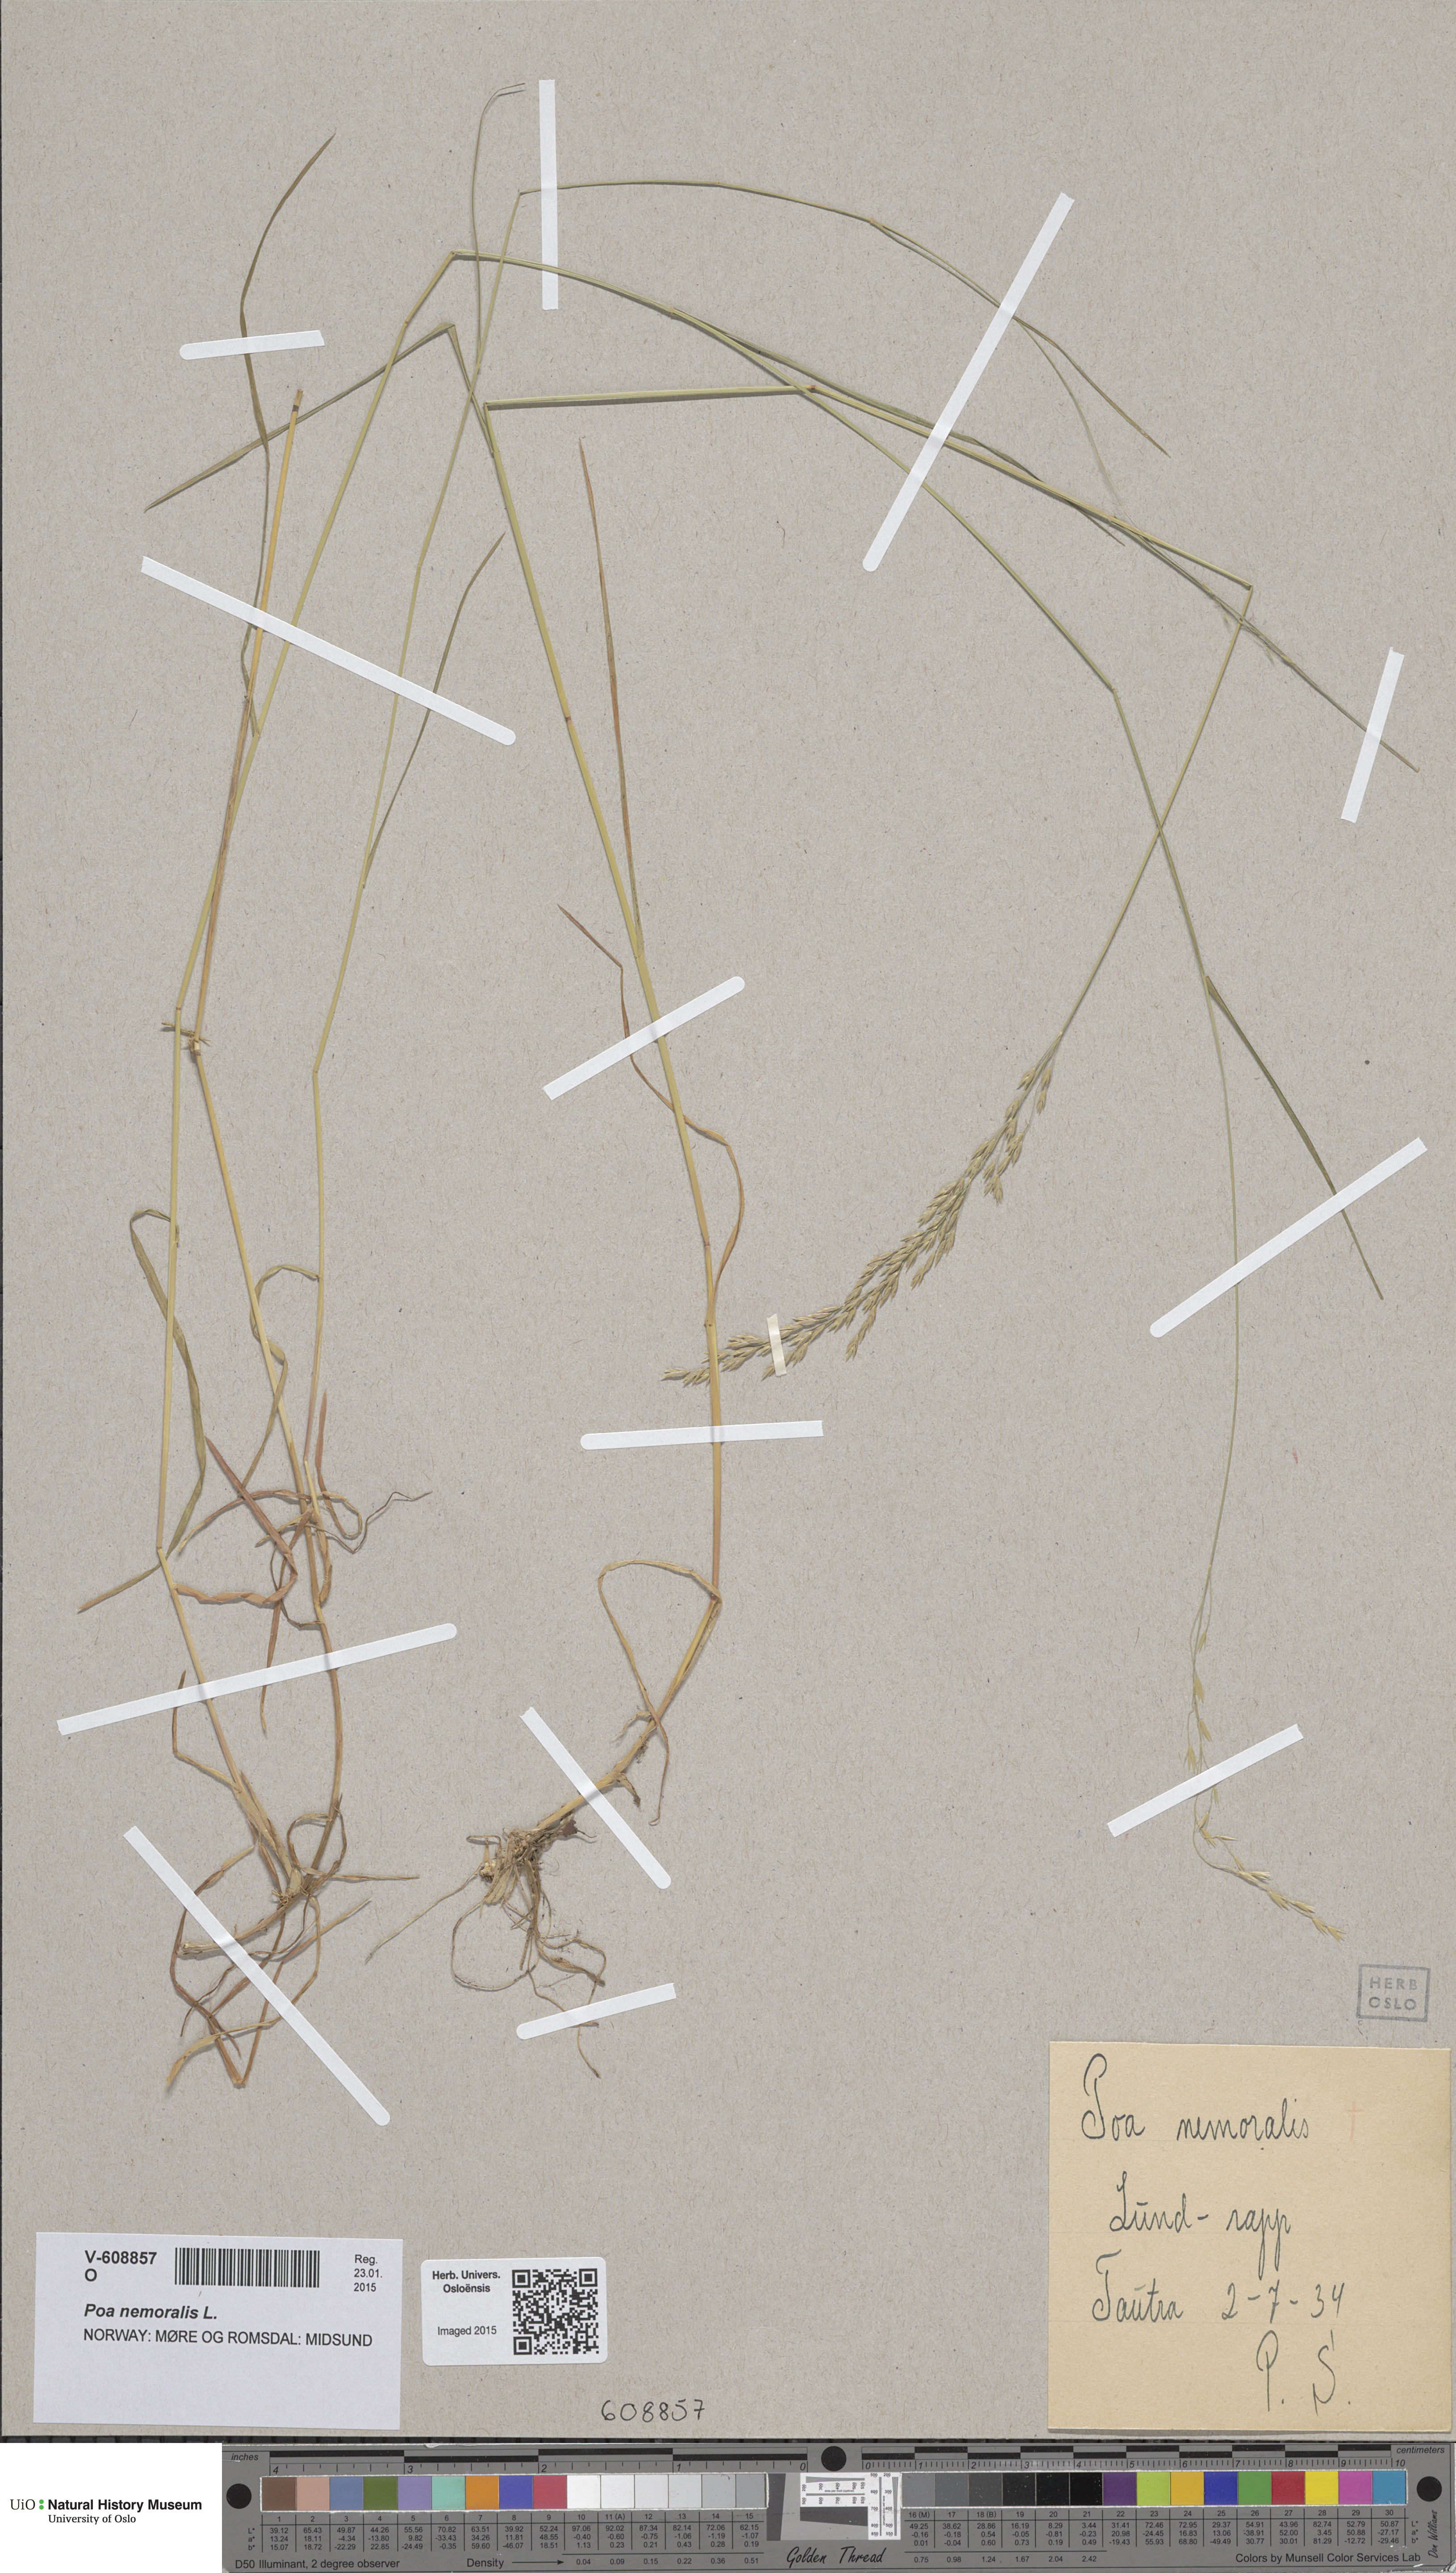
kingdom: Plantae
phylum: Tracheophyta
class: Liliopsida
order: Poales
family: Poaceae
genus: Poa
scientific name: Poa nemoralis
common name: Wood bluegrass
